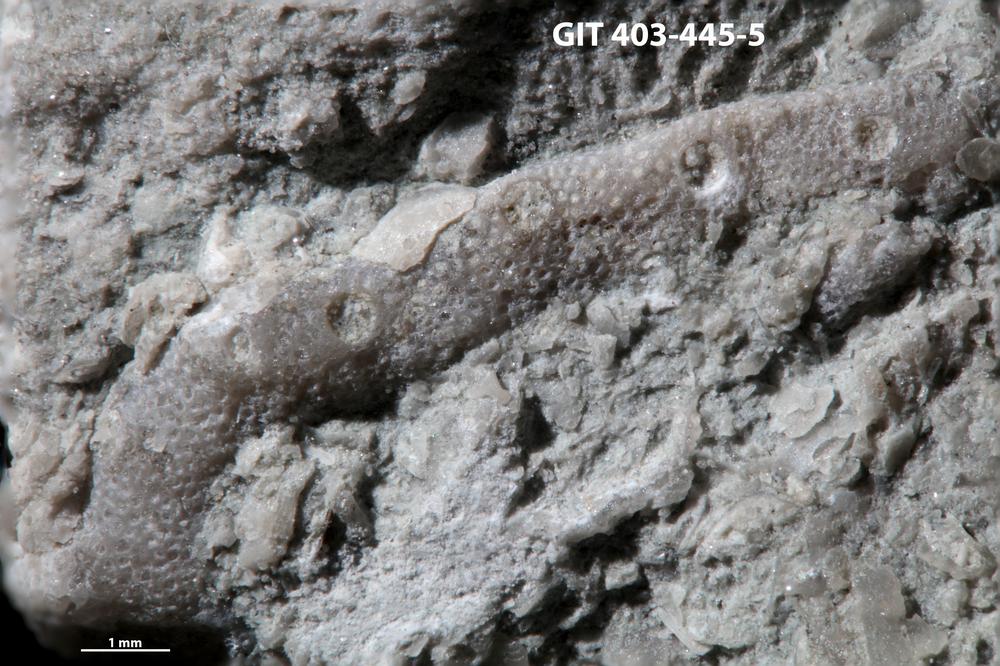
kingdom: Animalia
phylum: Bryozoa
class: Stenolaemata
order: Cystoporida
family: Fistuliporidae
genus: Fistulipora
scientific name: Fistulipora przhidolensis
